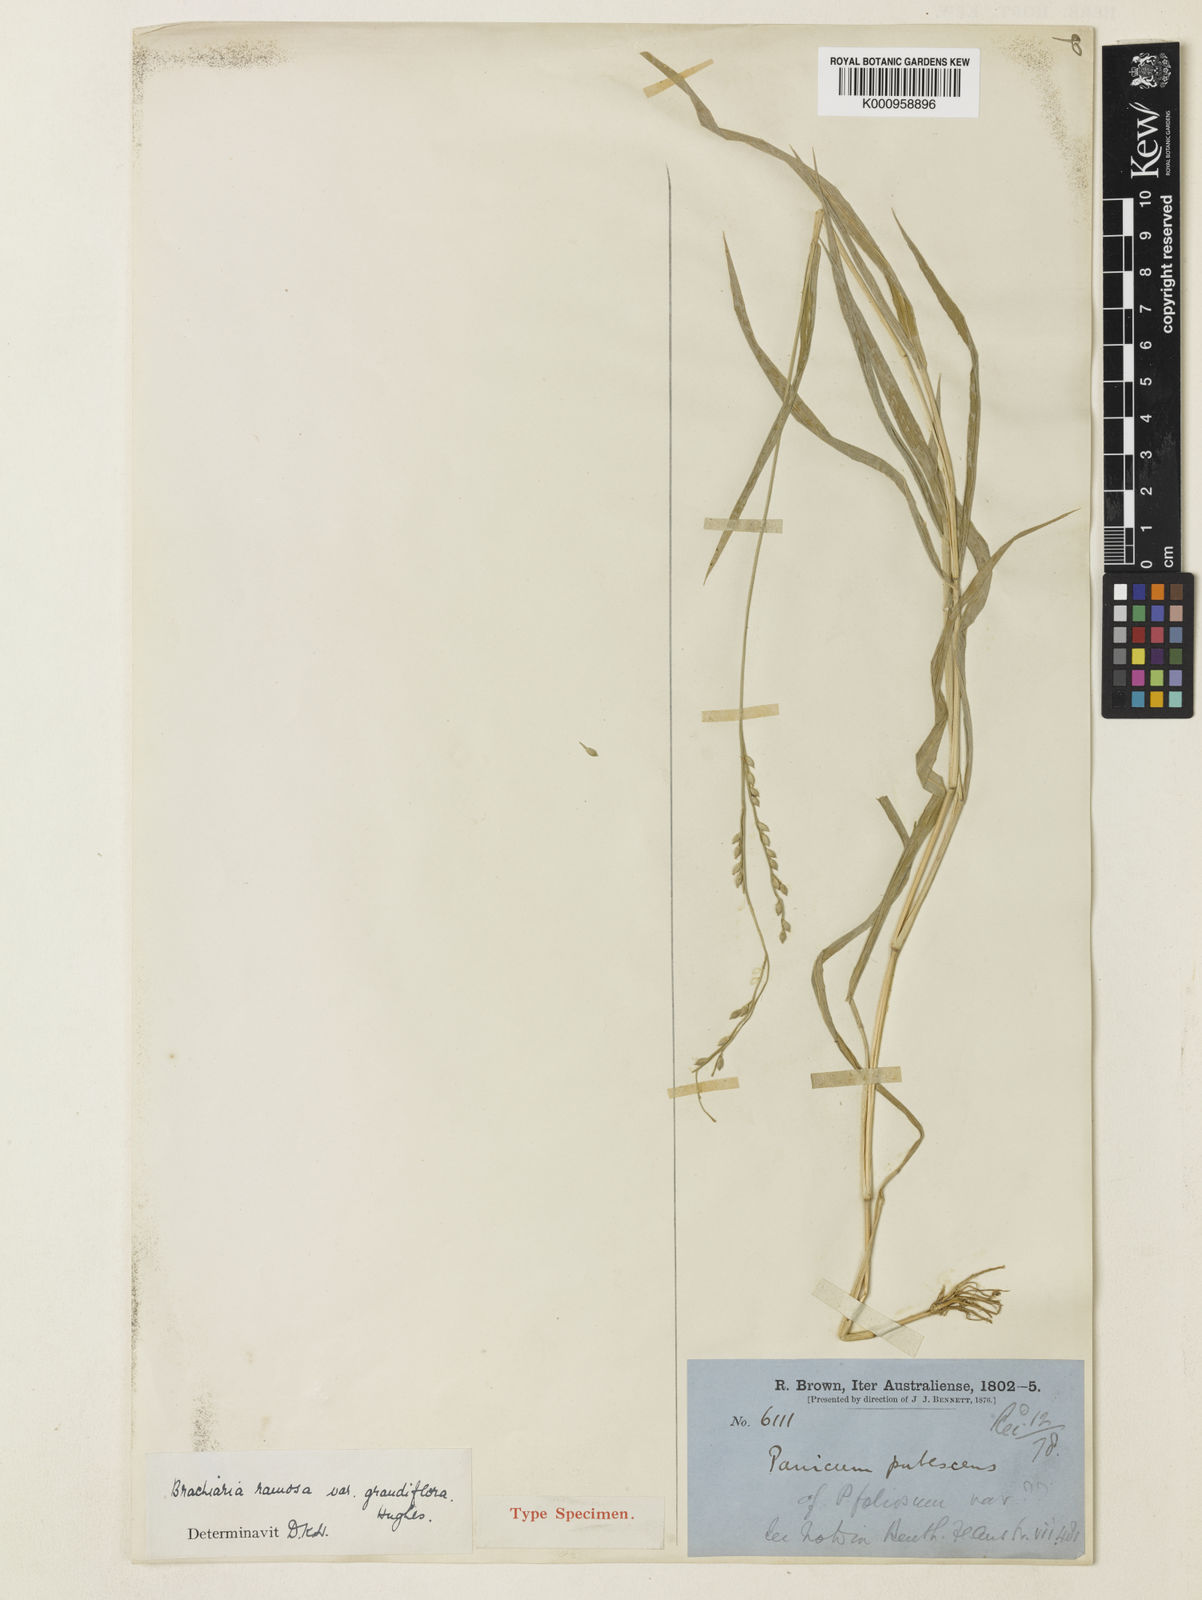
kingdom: Plantae
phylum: Tracheophyta
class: Liliopsida
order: Poales
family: Poaceae
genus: Urochloa
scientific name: Urochloa pubigera
